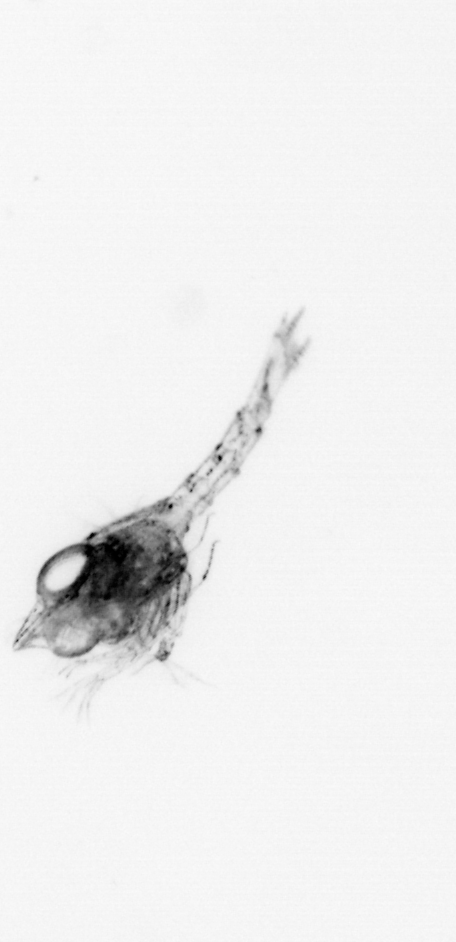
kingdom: Animalia
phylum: Arthropoda
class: Malacostraca
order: Decapoda
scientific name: Decapoda
